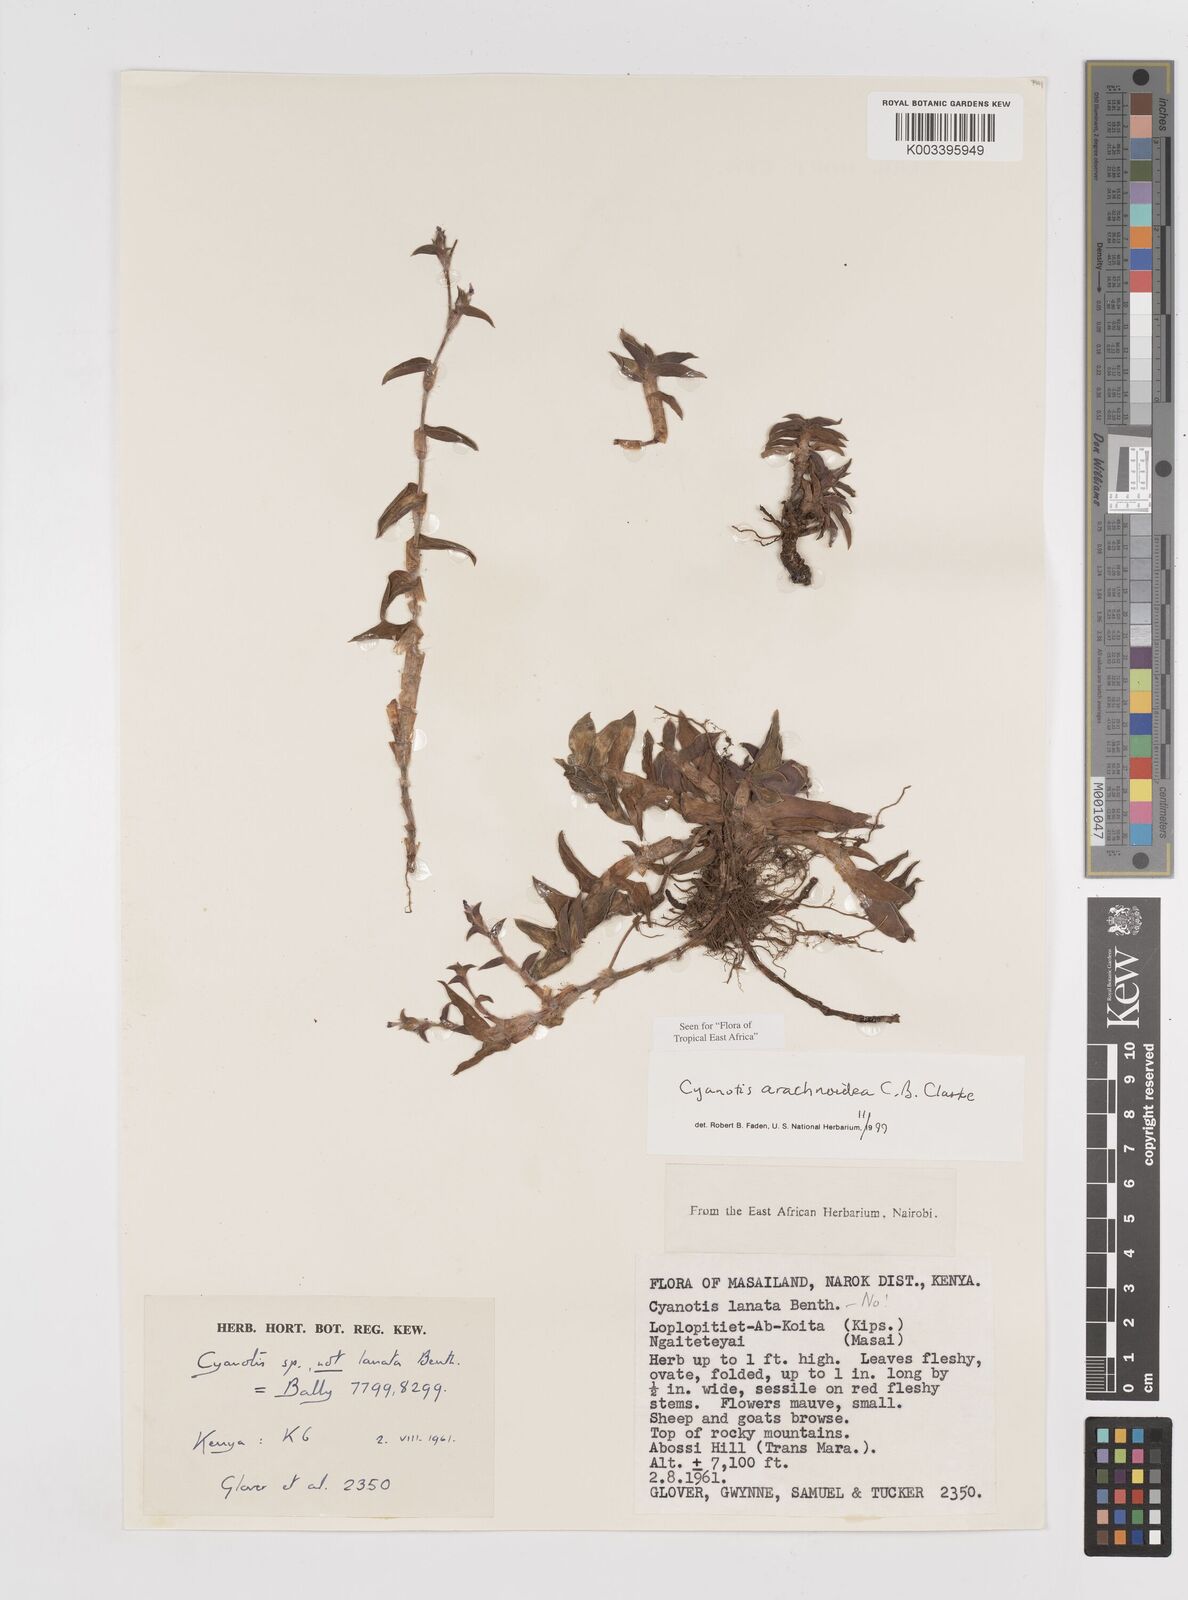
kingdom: Plantae
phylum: Tracheophyta
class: Liliopsida
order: Commelinales
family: Commelinaceae
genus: Cyanotis
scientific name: Cyanotis arachnoidea
